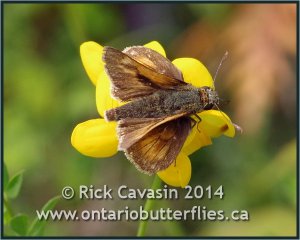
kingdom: Animalia
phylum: Arthropoda
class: Insecta
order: Lepidoptera
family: Hesperiidae
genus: Polites
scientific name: Polites
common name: Long Dash Skipper
